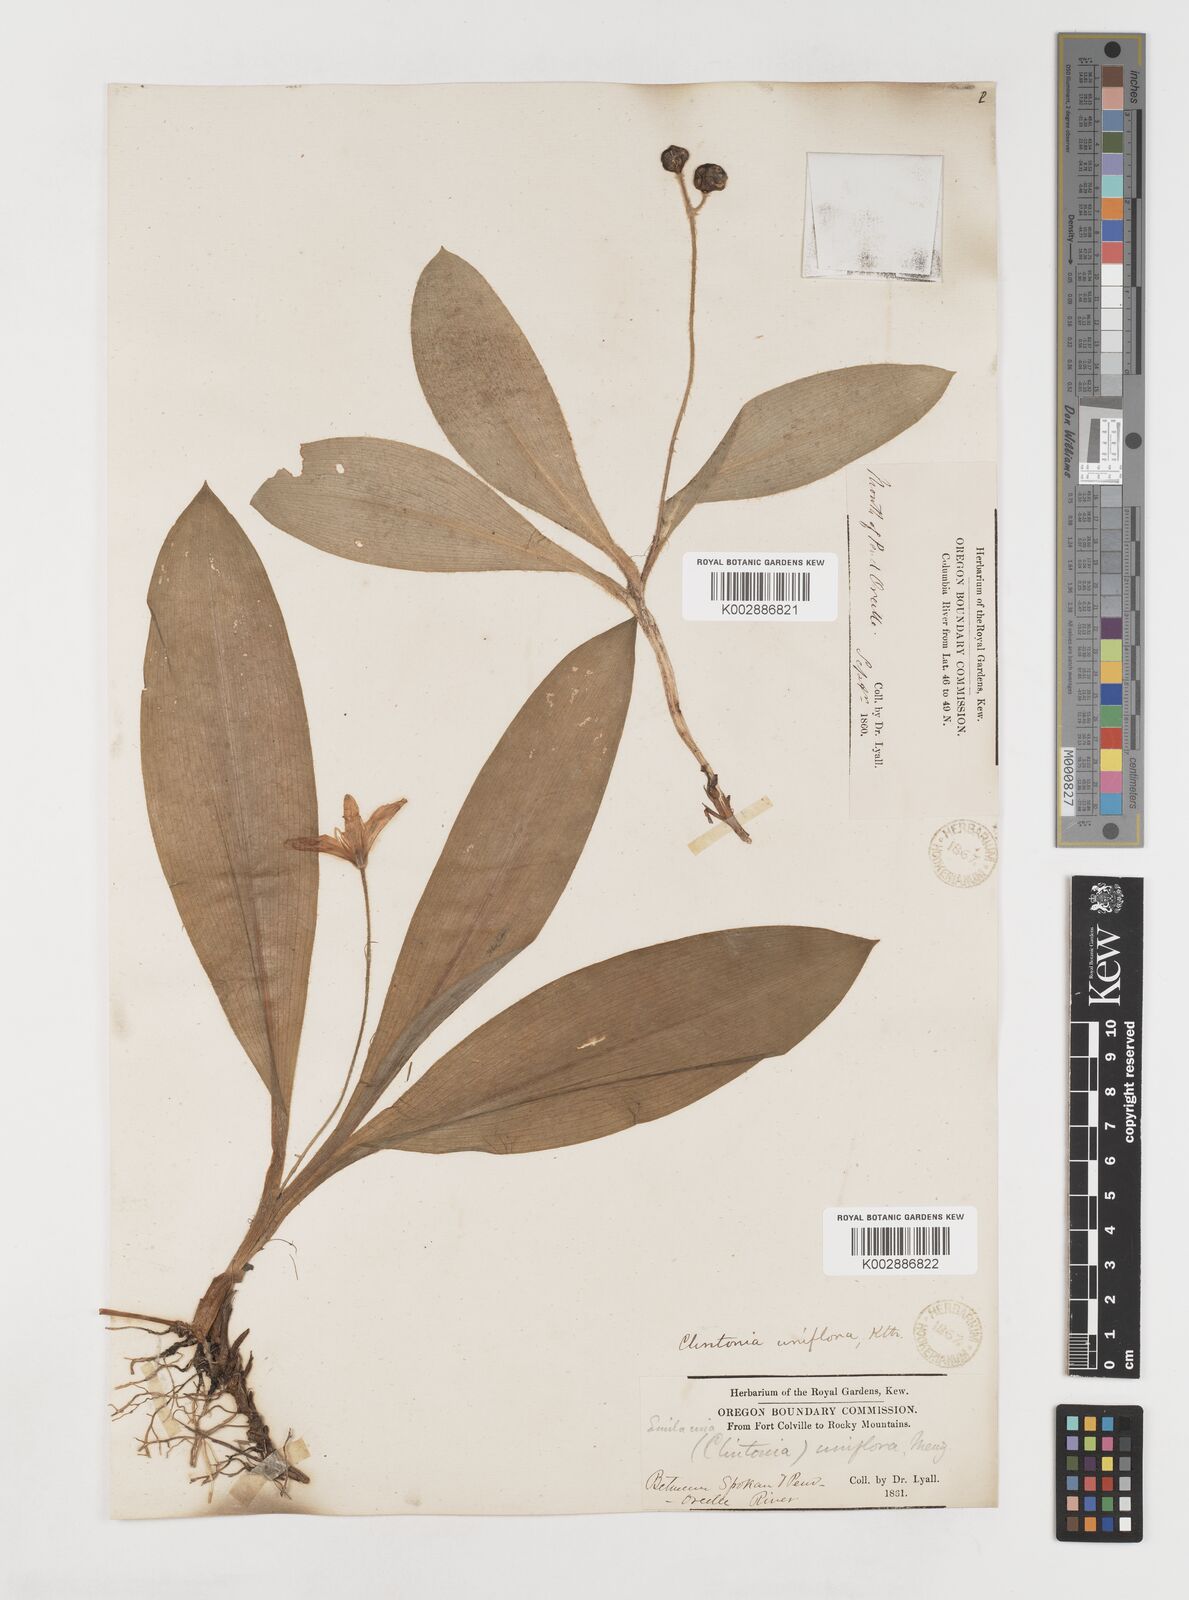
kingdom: Plantae
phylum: Tracheophyta
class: Liliopsida
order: Liliales
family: Liliaceae
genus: Clintonia
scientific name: Clintonia uniflora
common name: Queen's cup
